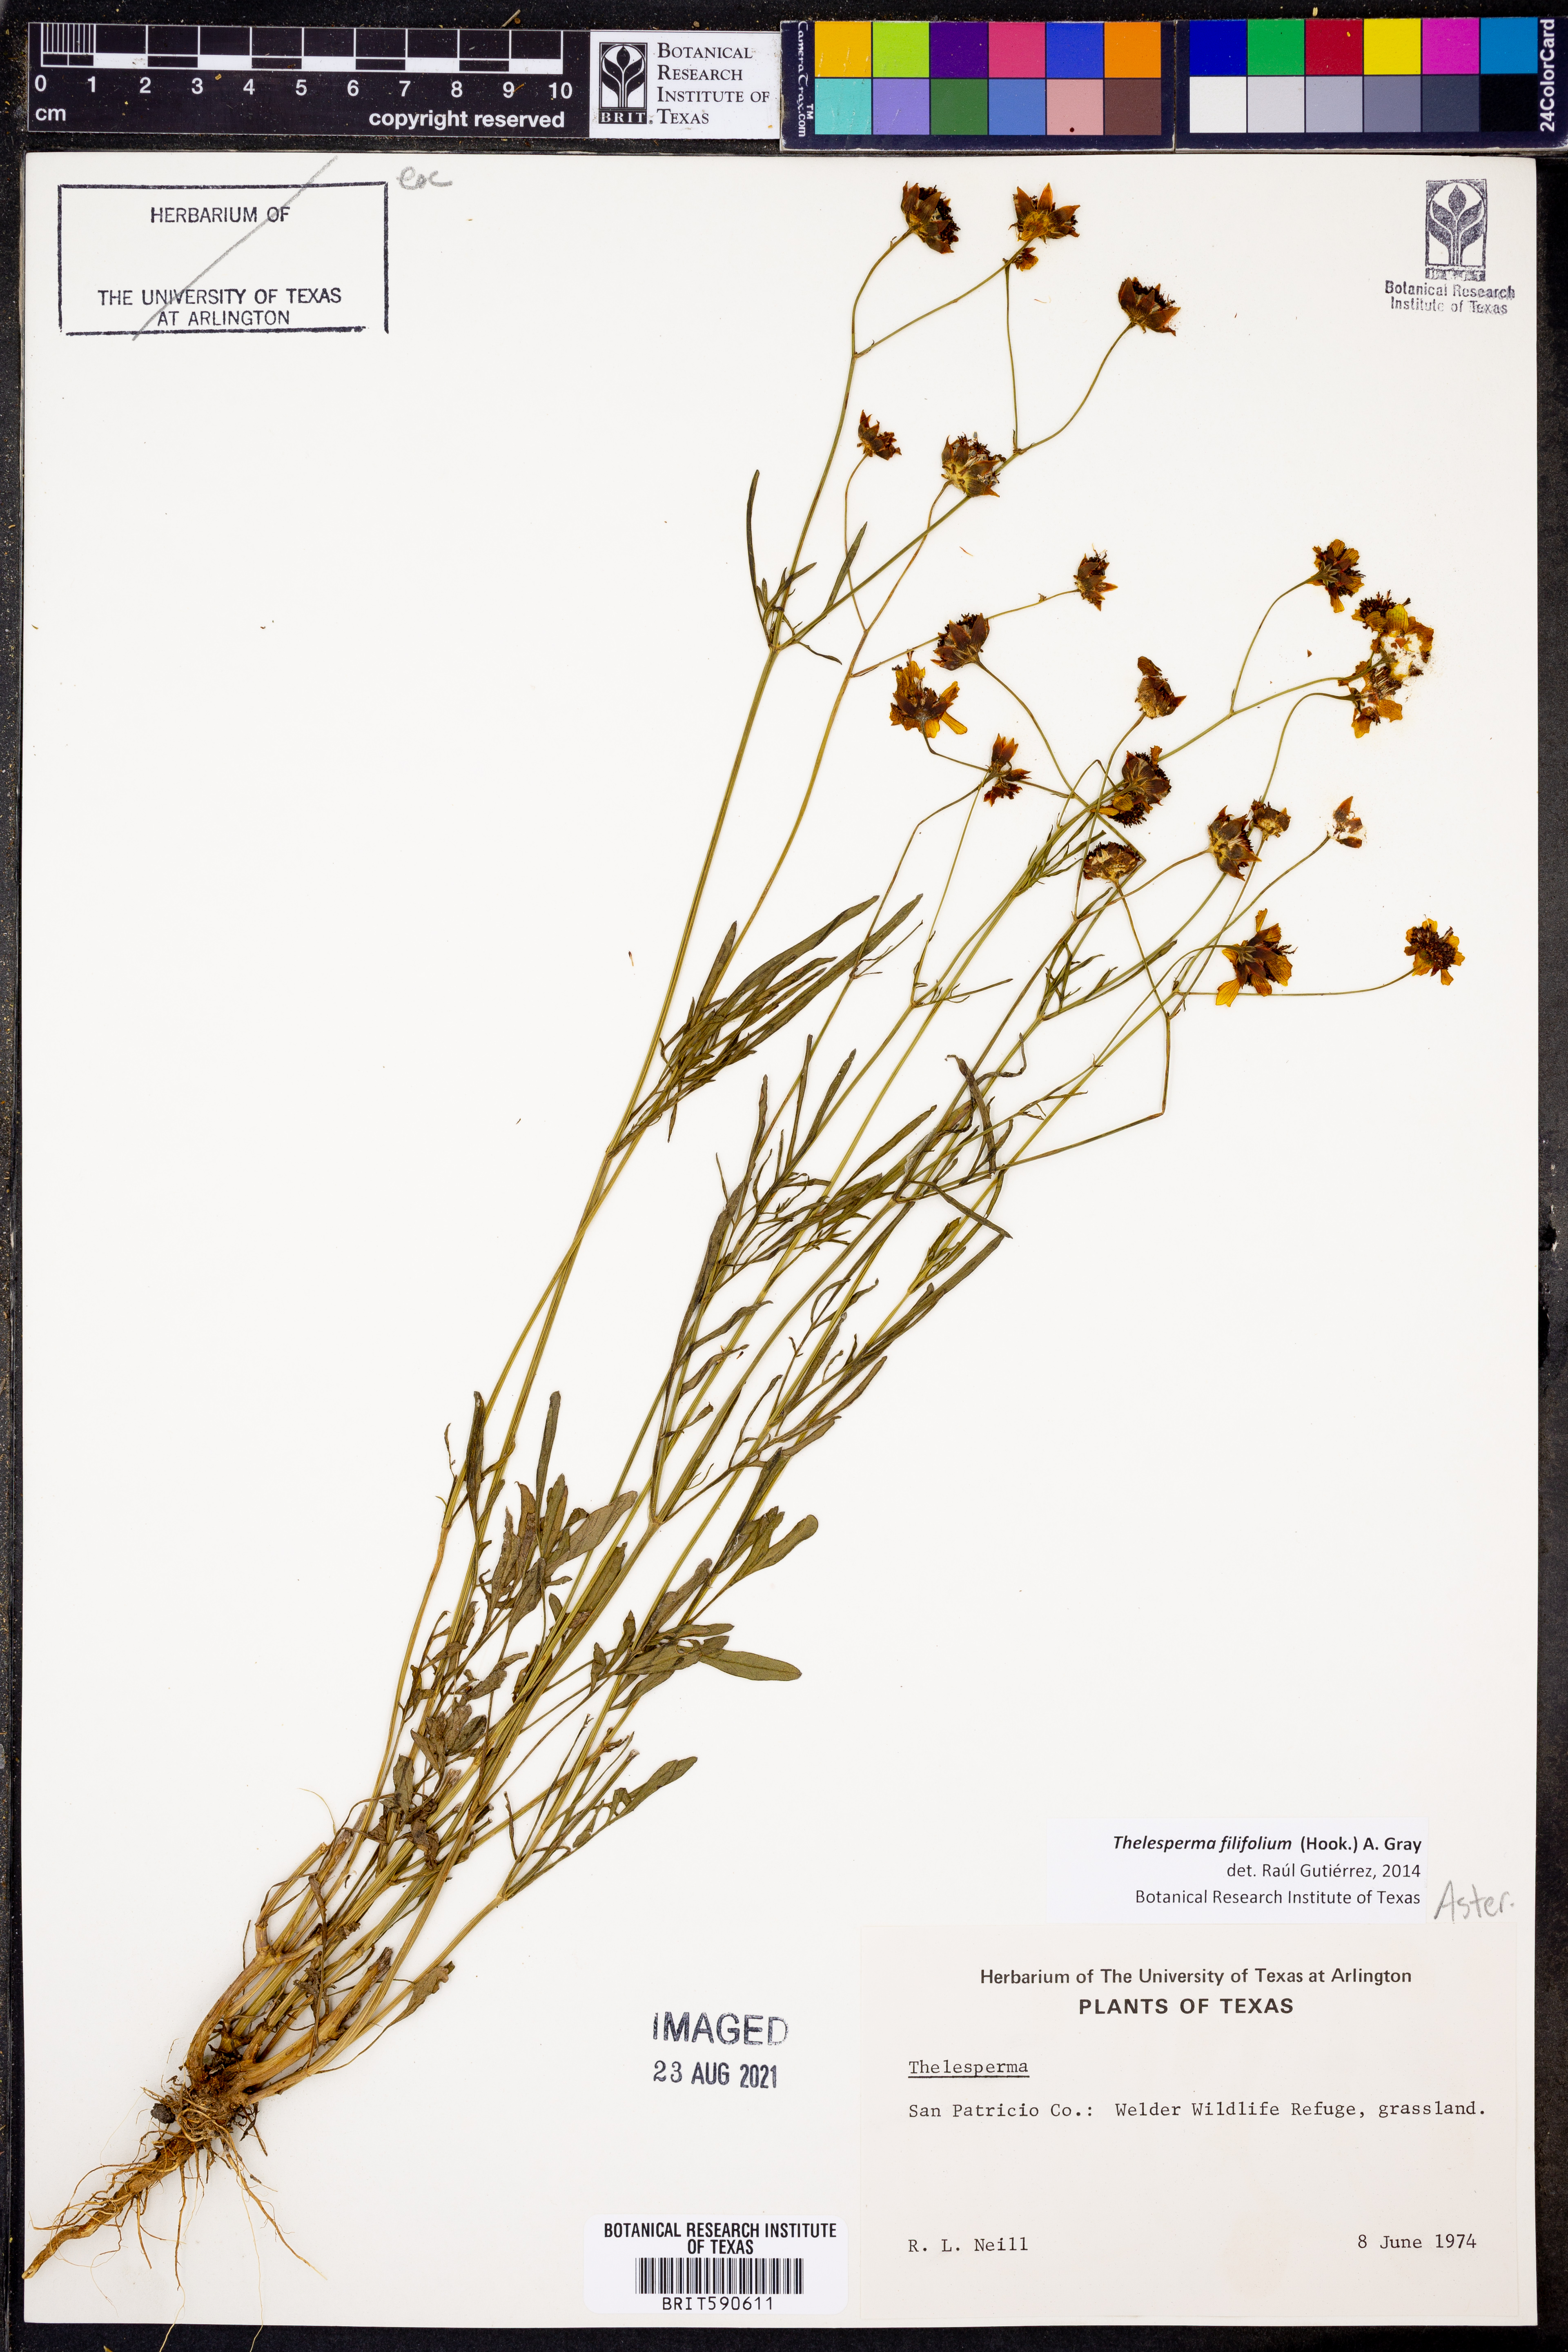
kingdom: Plantae
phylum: Tracheophyta
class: Magnoliopsida
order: Asterales
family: Asteraceae
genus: Thelesperma
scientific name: Thelesperma filifolium
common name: Stiff greenthread
